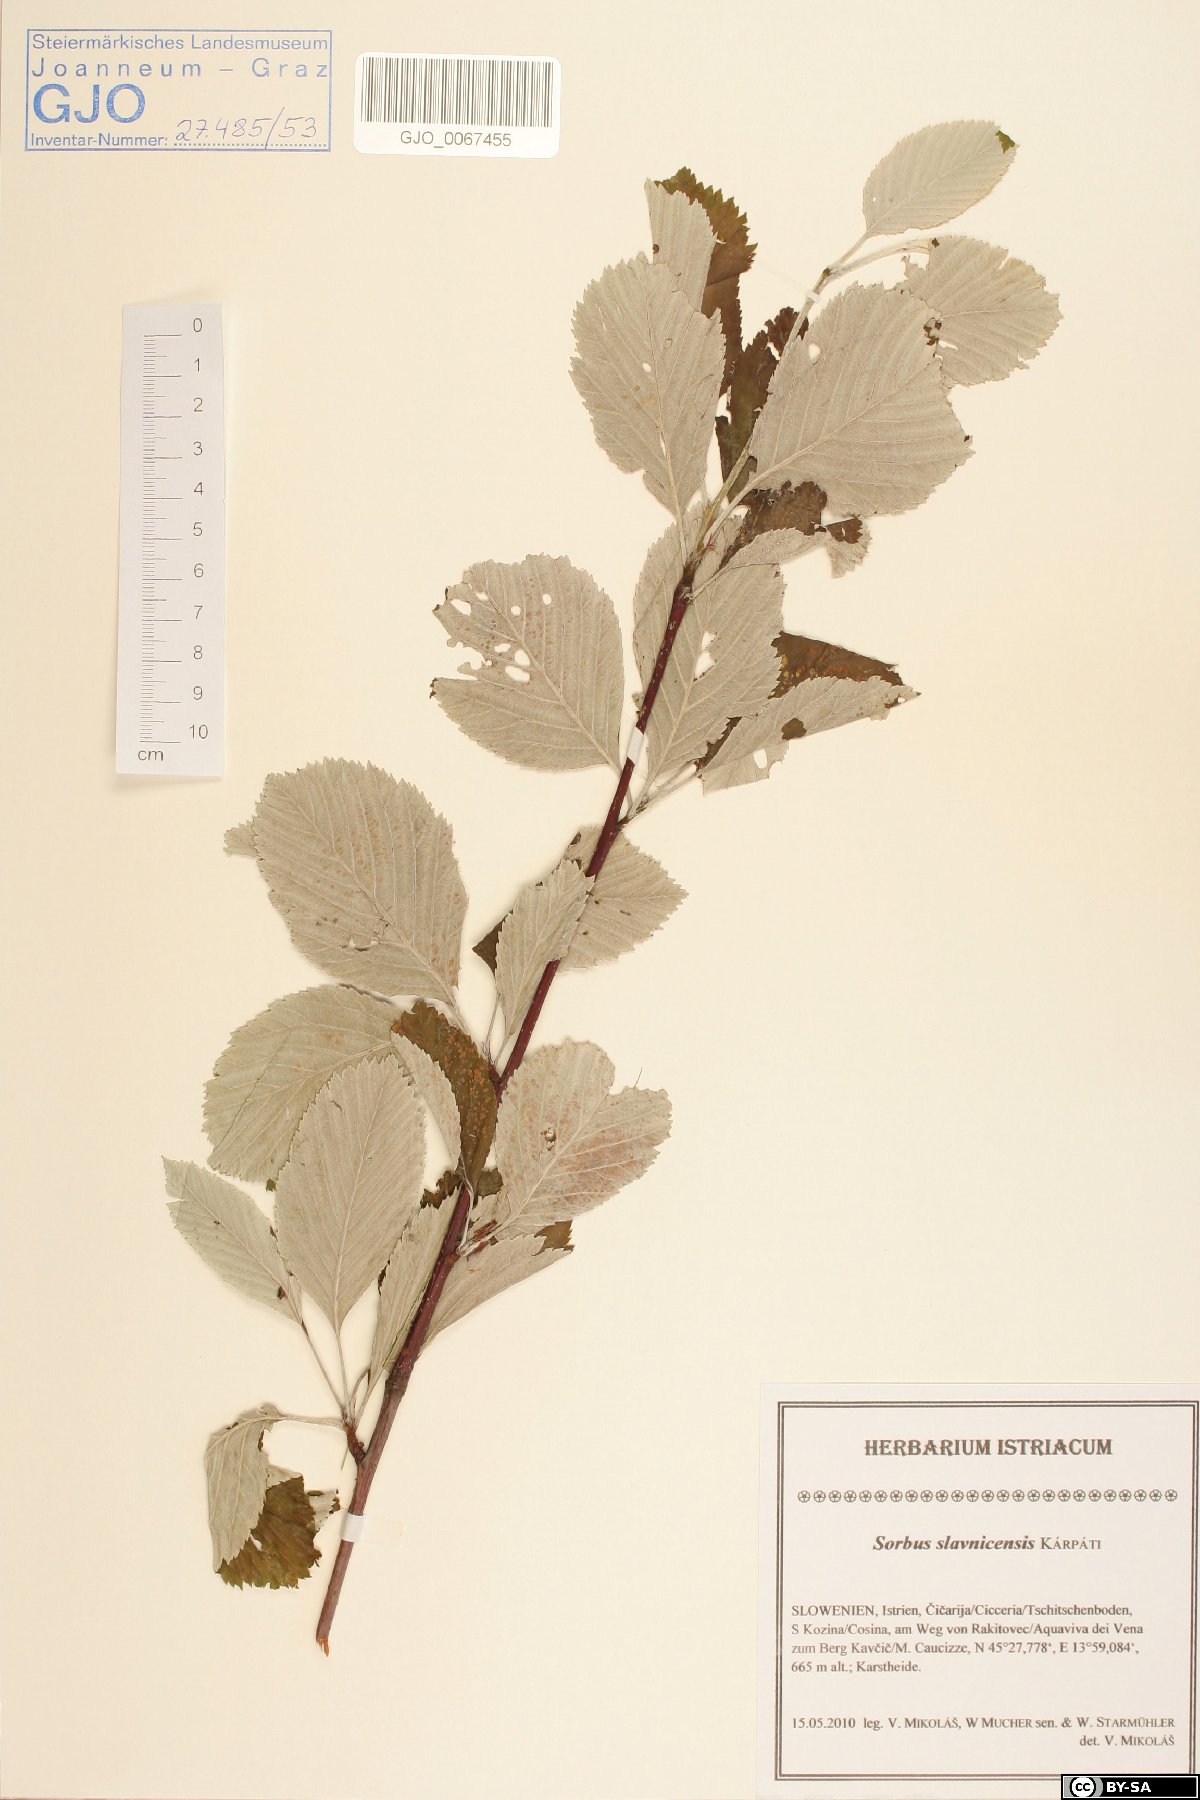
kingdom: Plantae
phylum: Tracheophyta
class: Magnoliopsida
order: Rosales
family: Rosaceae
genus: Karpatiosorbus
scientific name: Karpatiosorbus slavnicensis
